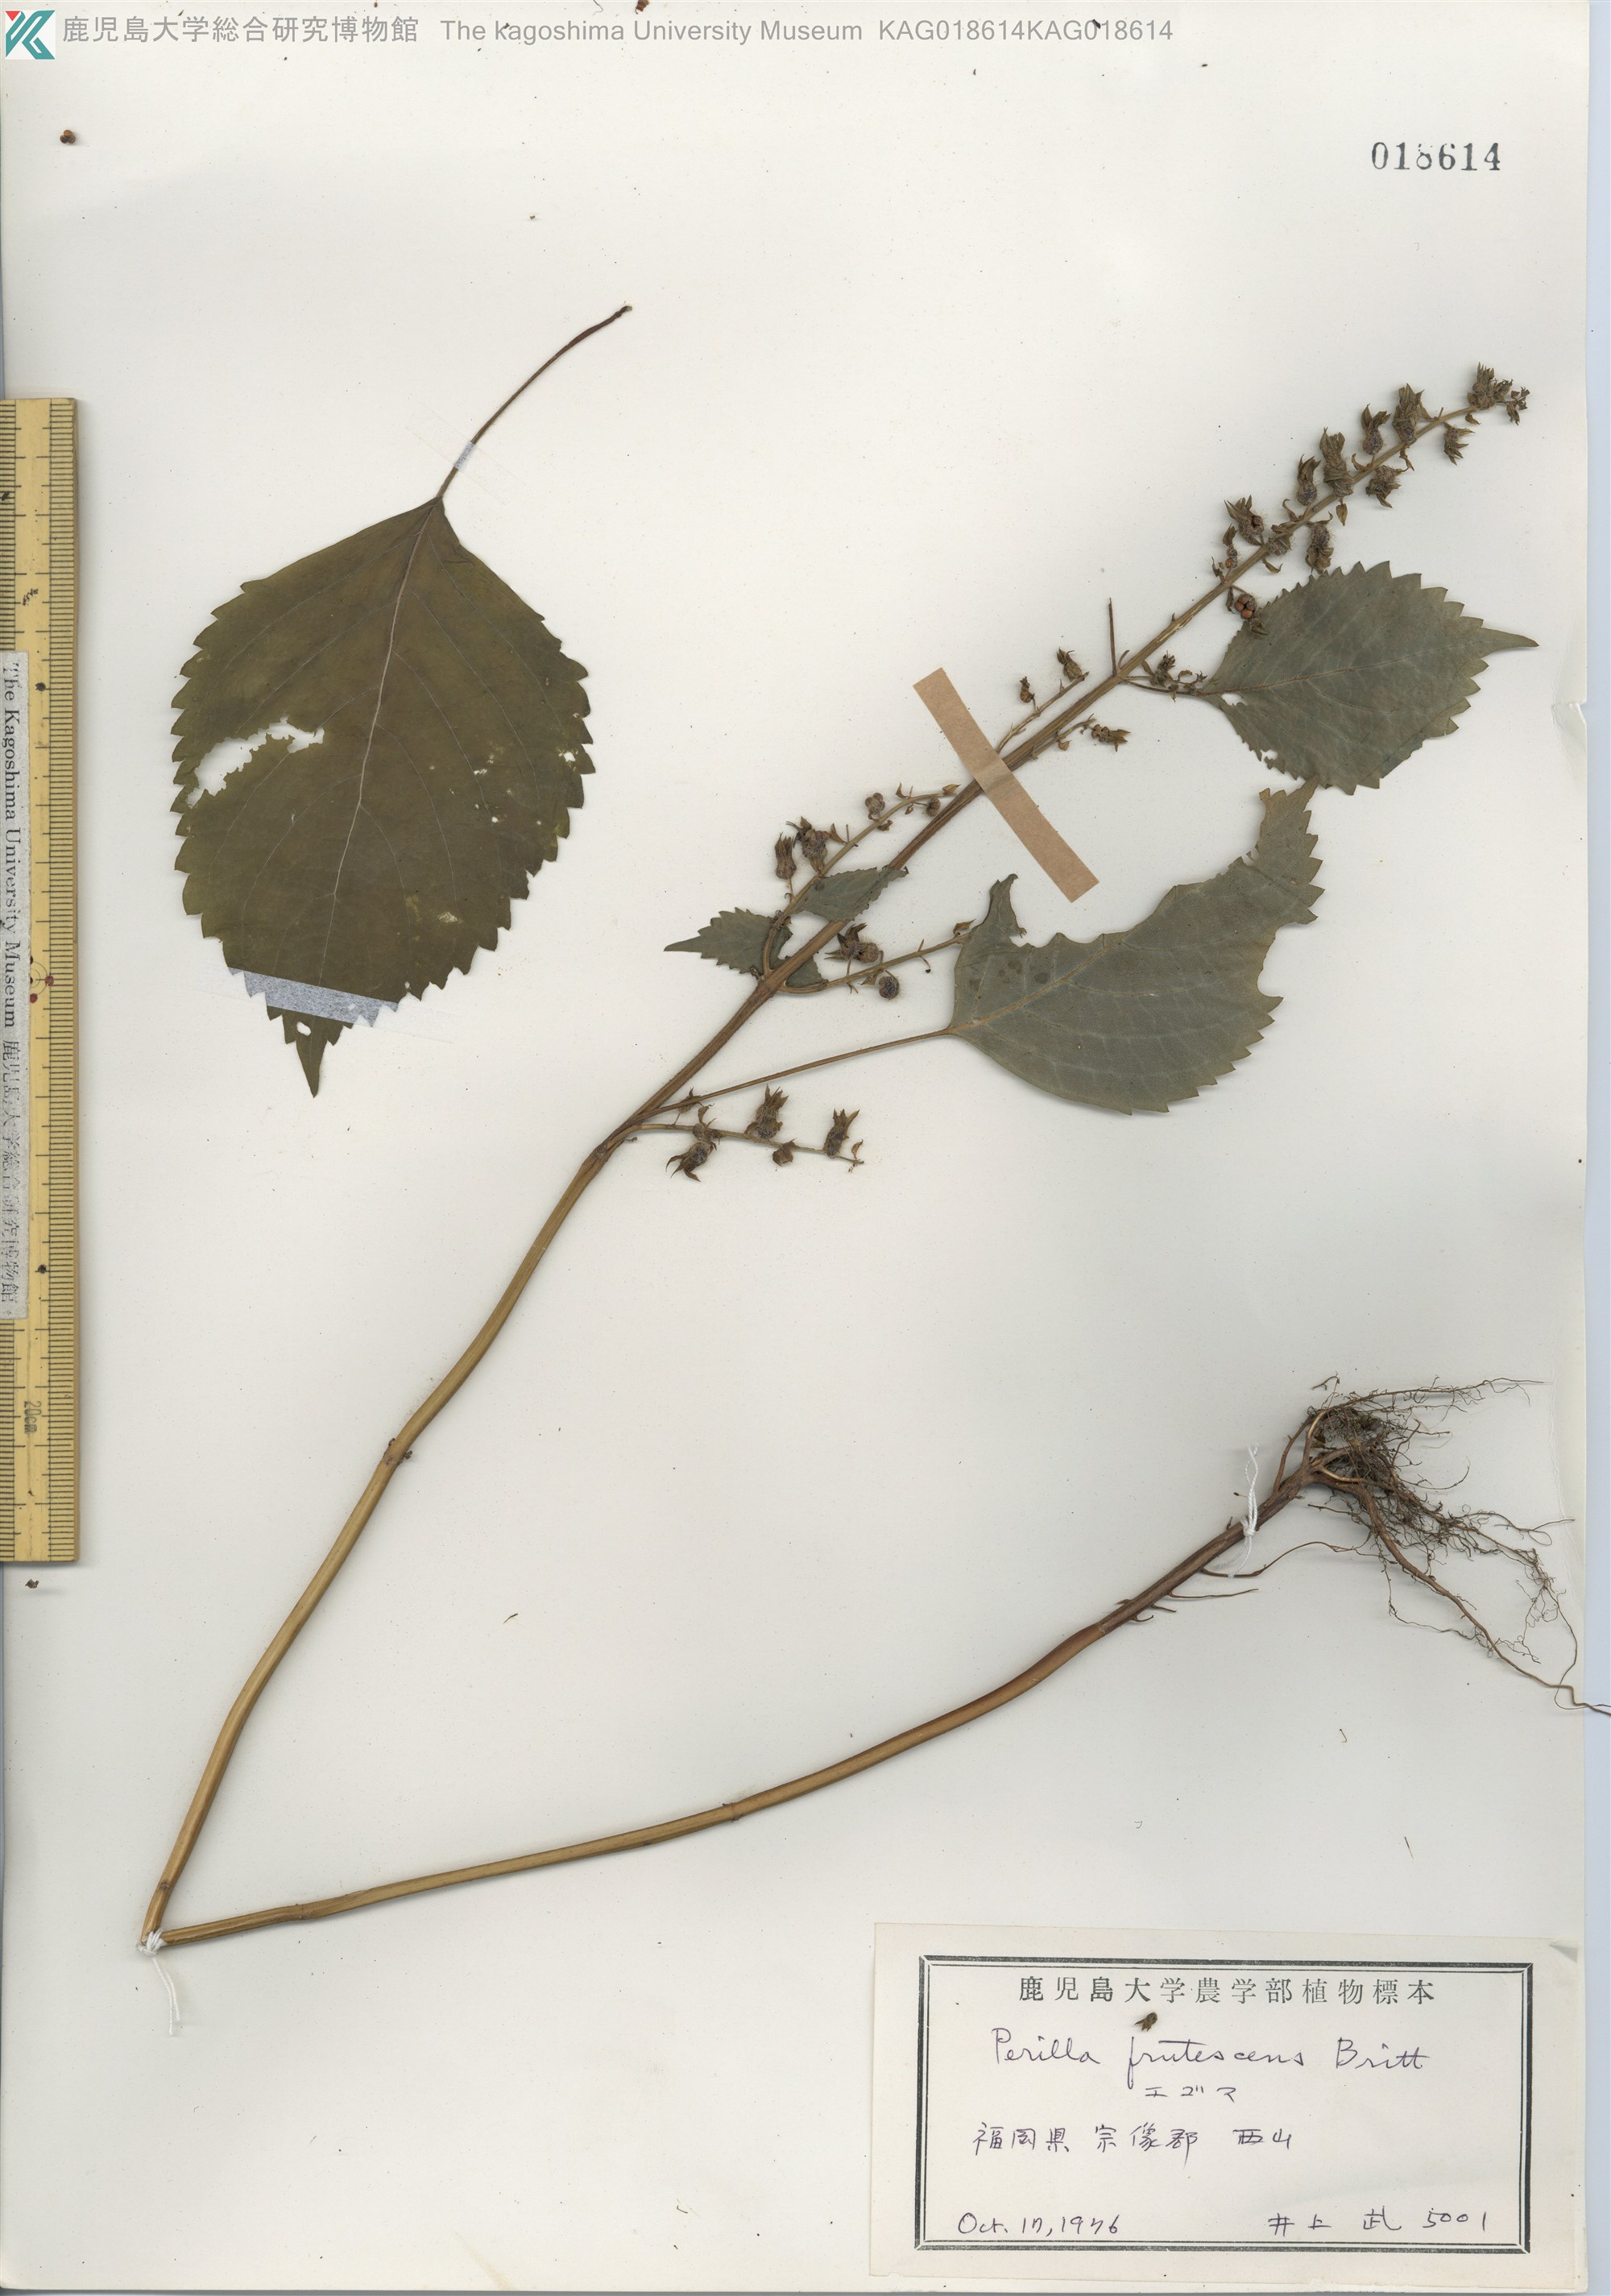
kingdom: Plantae
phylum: Tracheophyta
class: Magnoliopsida
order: Lamiales
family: Lamiaceae
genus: Perilla
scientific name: Perilla frutescens
